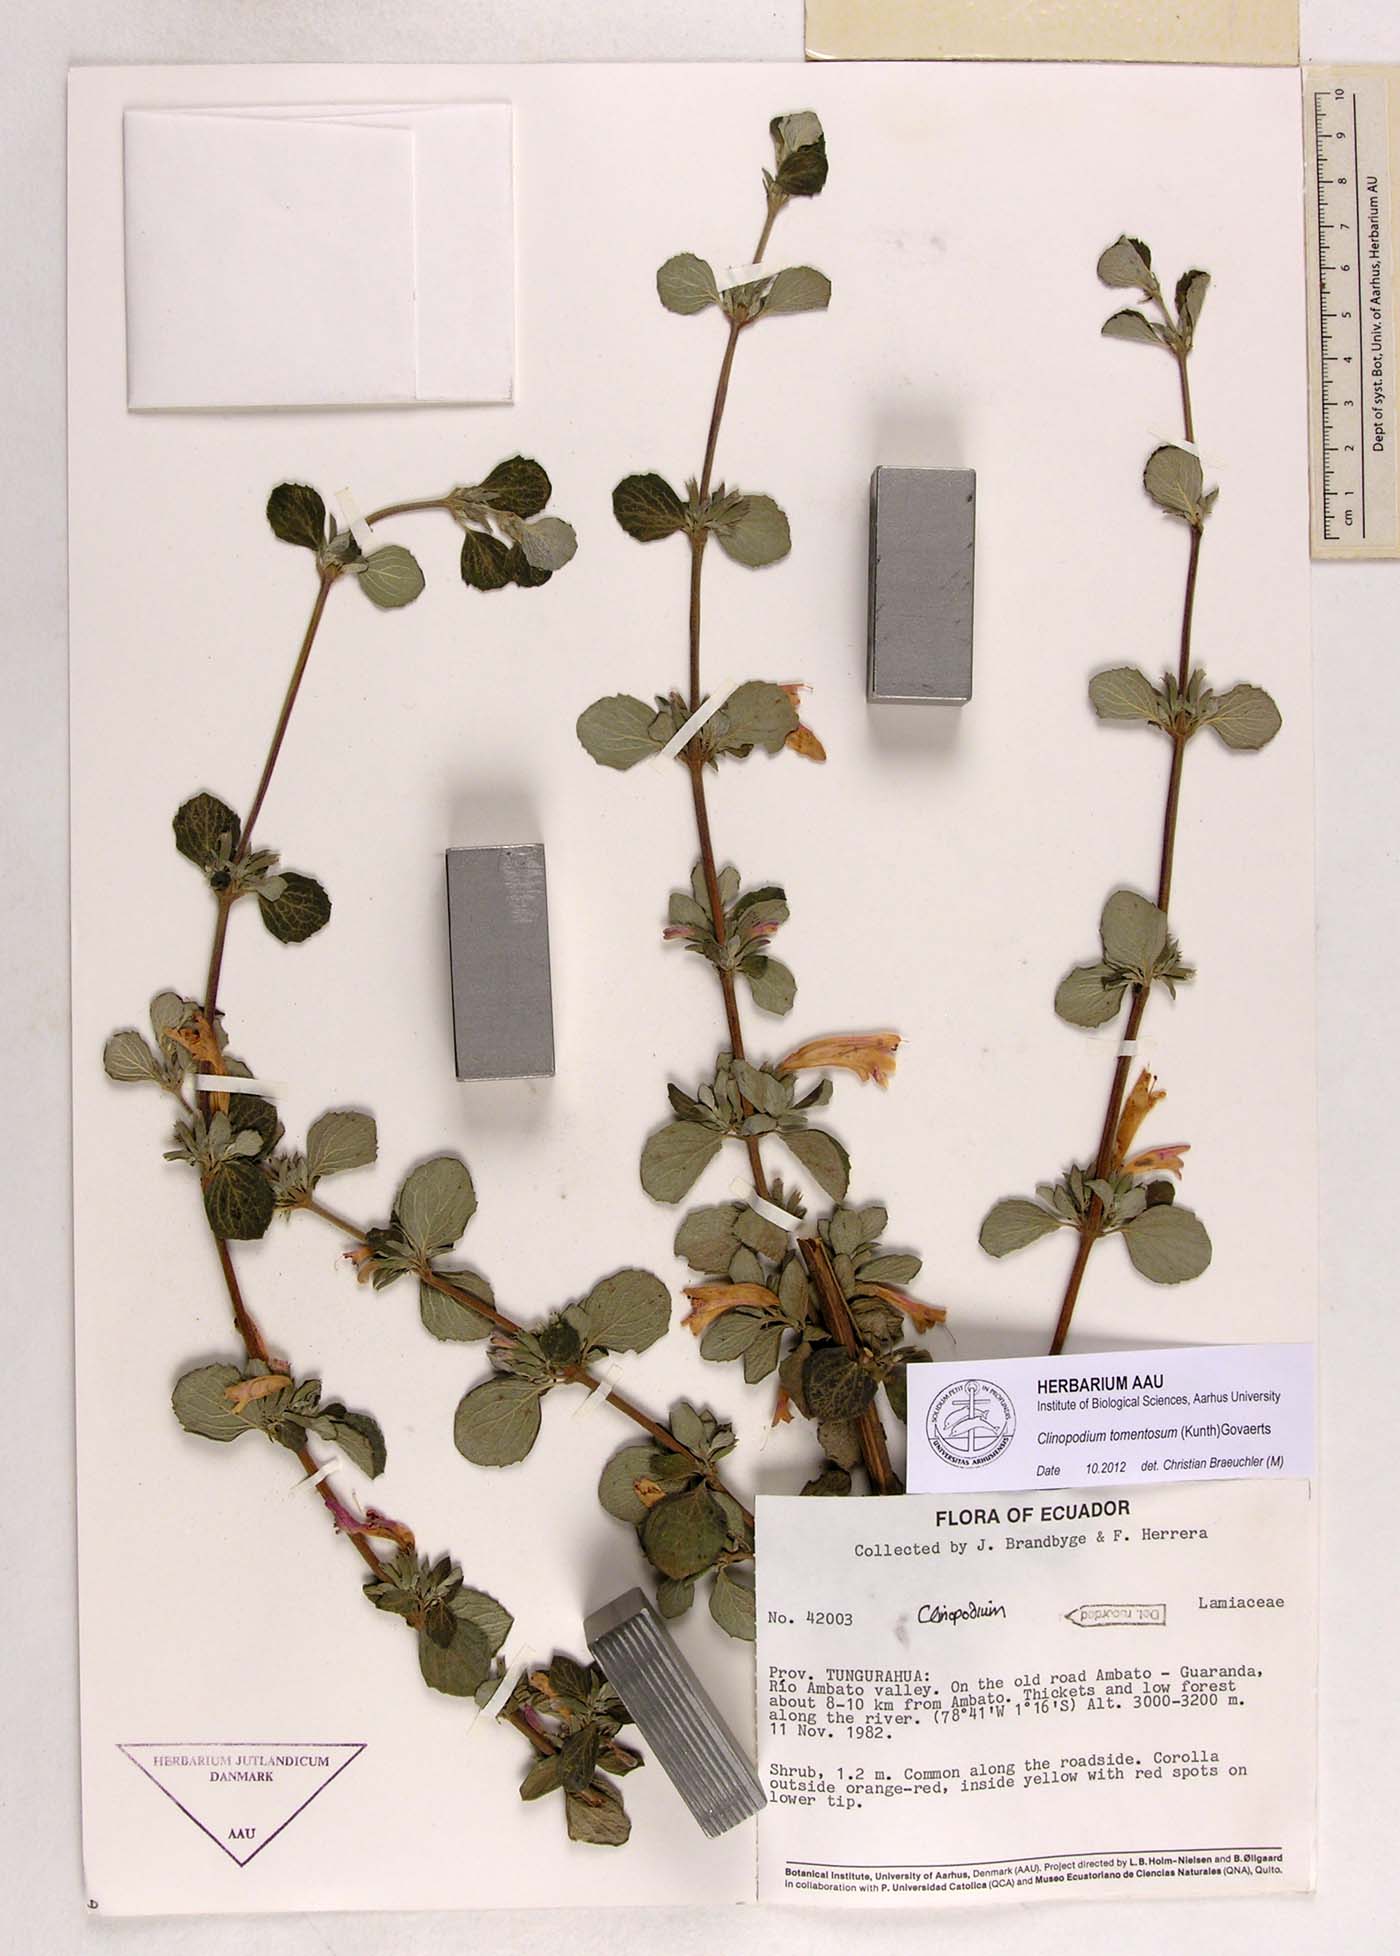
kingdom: Plantae
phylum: Tracheophyta
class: Magnoliopsida
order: Lamiales
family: Lamiaceae
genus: Clinopodium
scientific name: Clinopodium tomentosum
